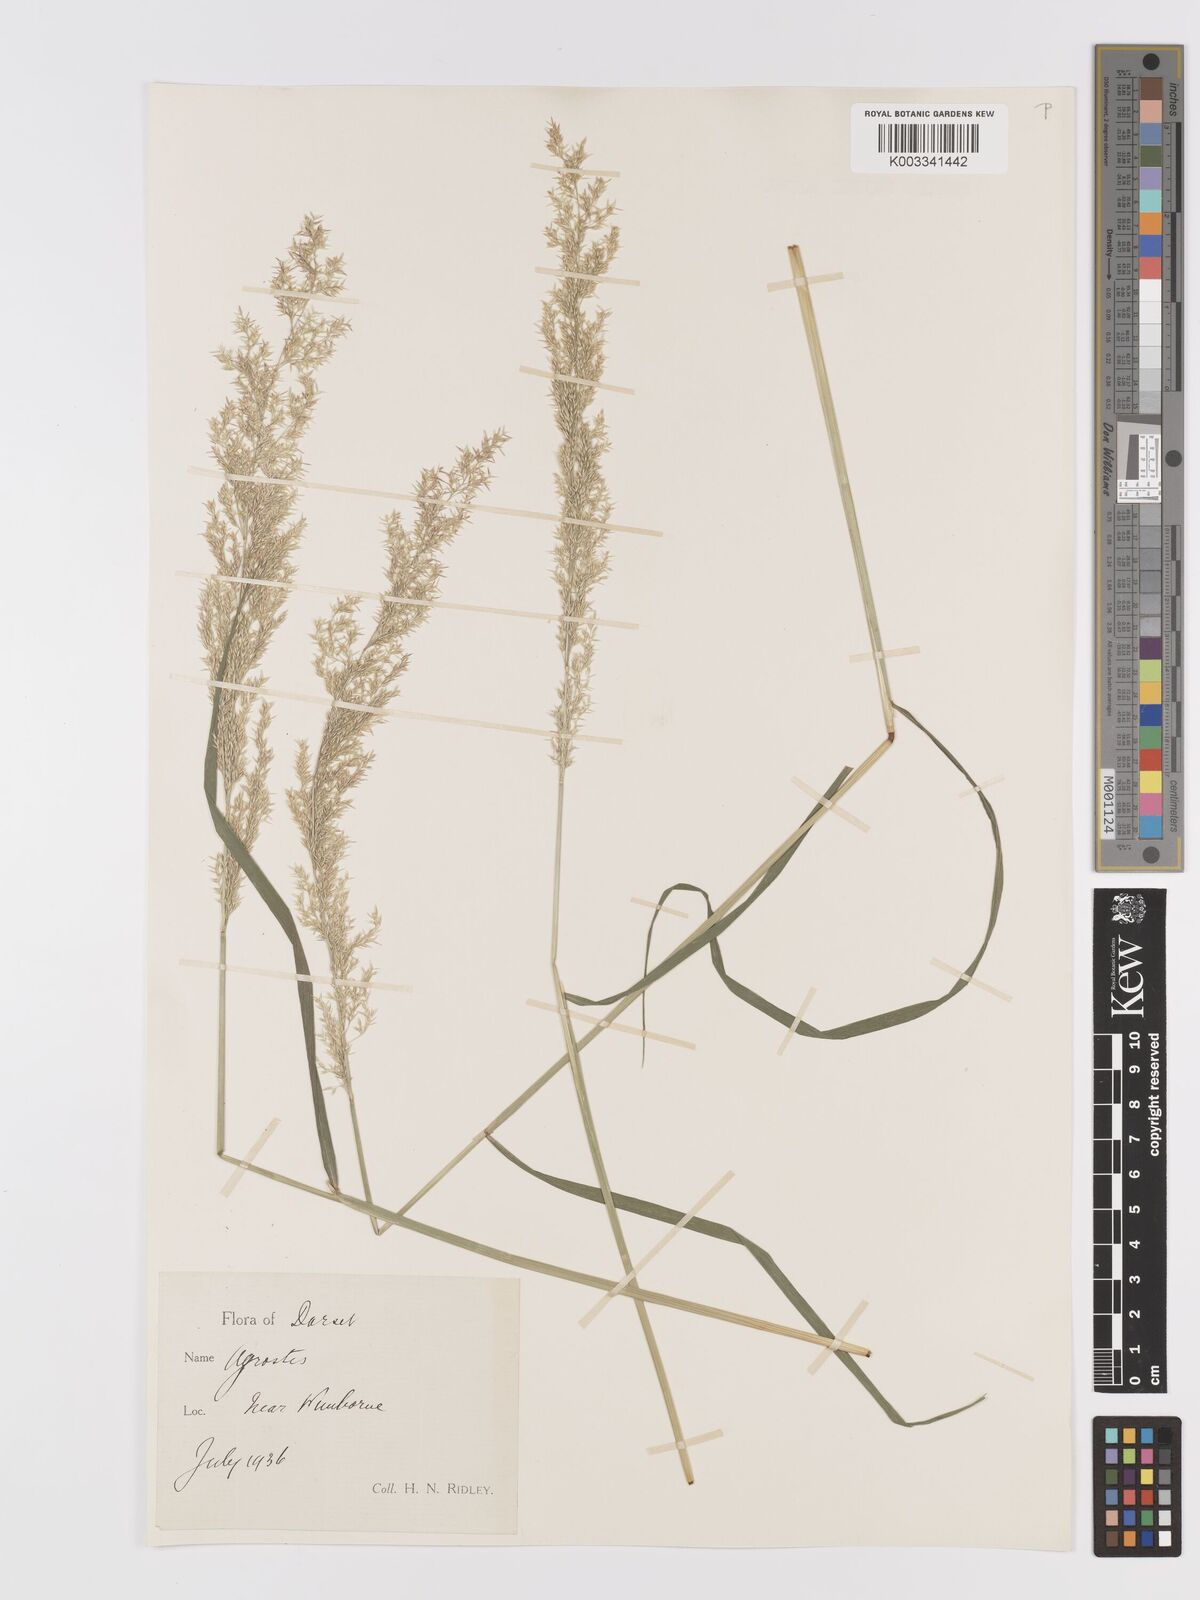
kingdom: Plantae
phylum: Tracheophyta
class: Liliopsida
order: Poales
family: Poaceae
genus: Agrostis
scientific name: Agrostis stolonifera
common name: Creeping bentgrass
